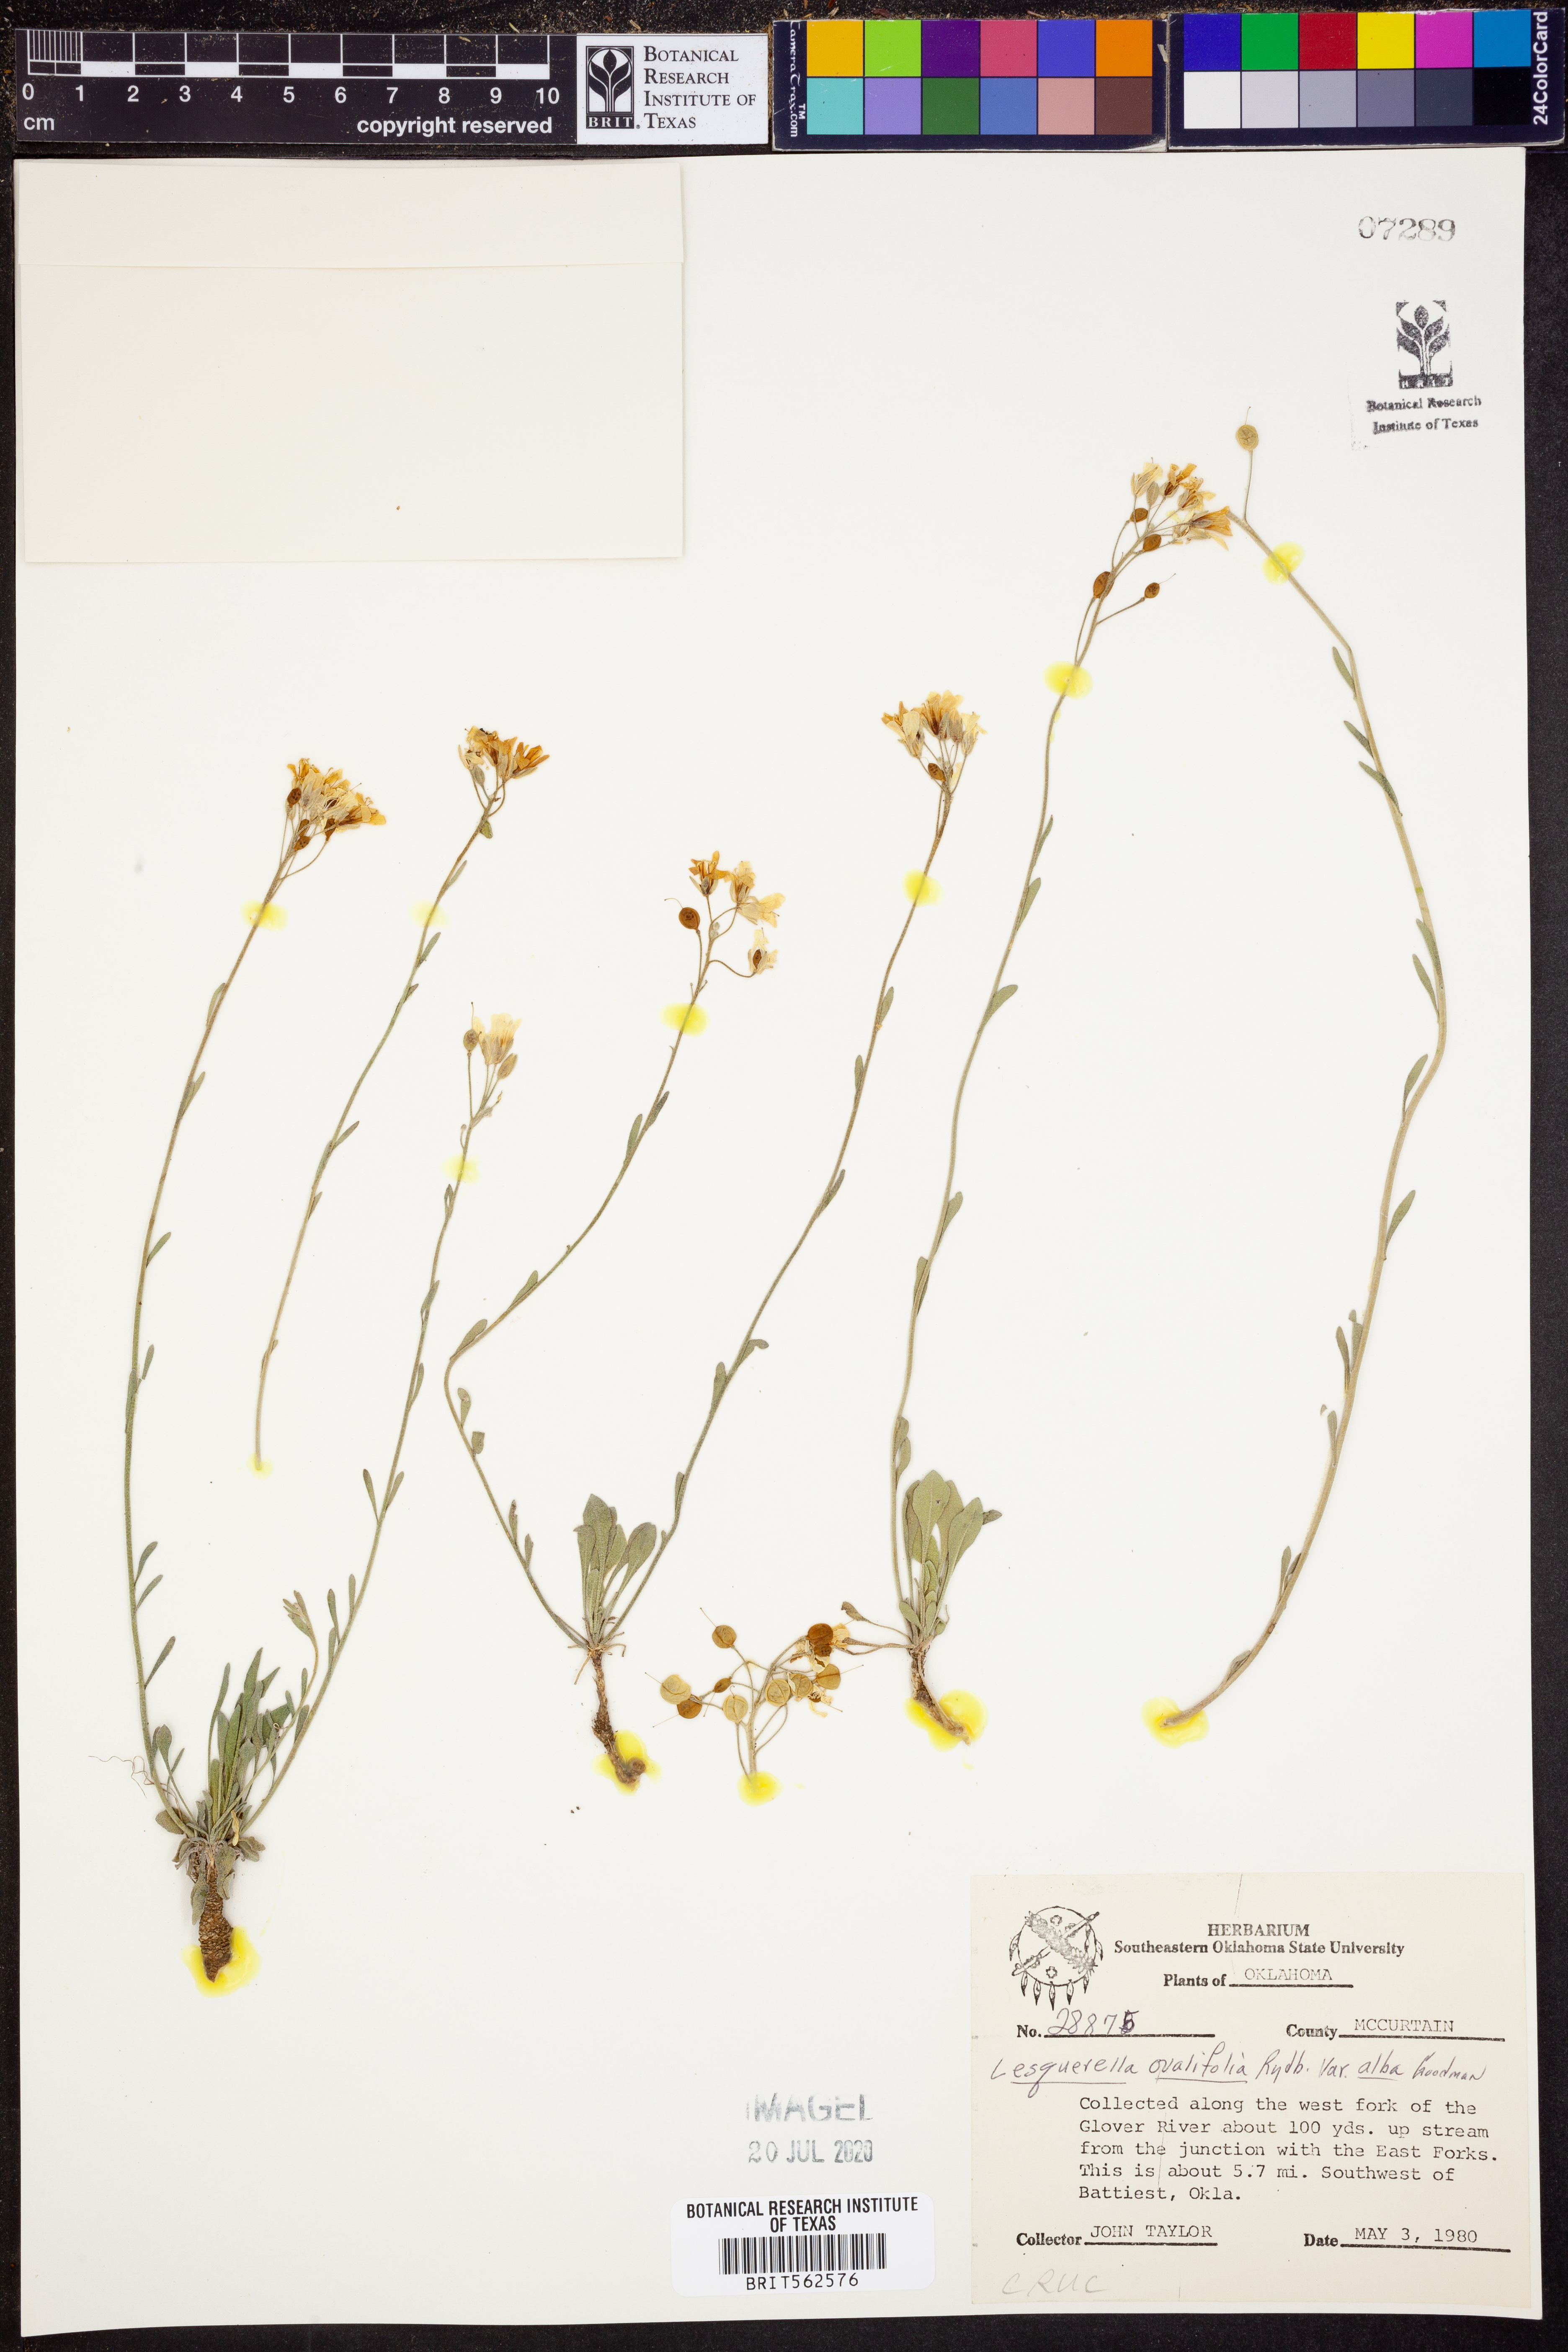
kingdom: Plantae
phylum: Tracheophyta
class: Magnoliopsida
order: Brassicales
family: Brassicaceae
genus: Physaria
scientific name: Physaria ovalifolia
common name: Round-leaf bladderpod
